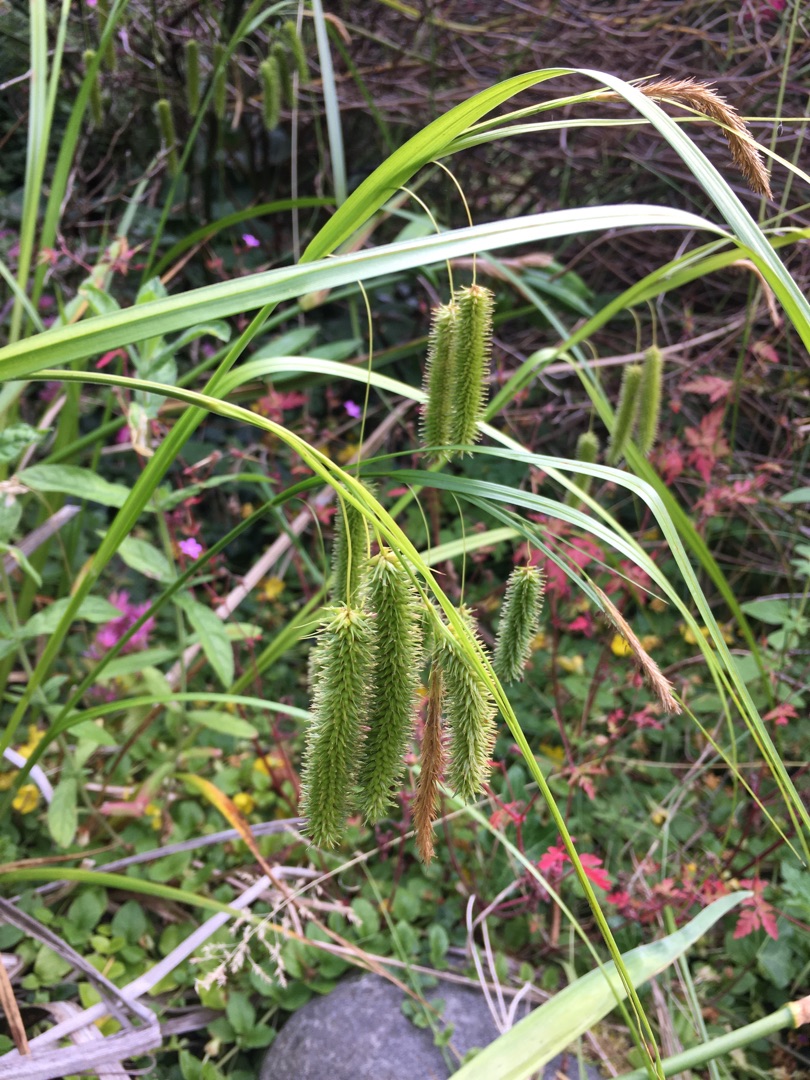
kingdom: Plantae
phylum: Tracheophyta
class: Liliopsida
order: Poales
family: Cyperaceae
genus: Carex
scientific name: Carex pseudocyperus
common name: Knippe-star
